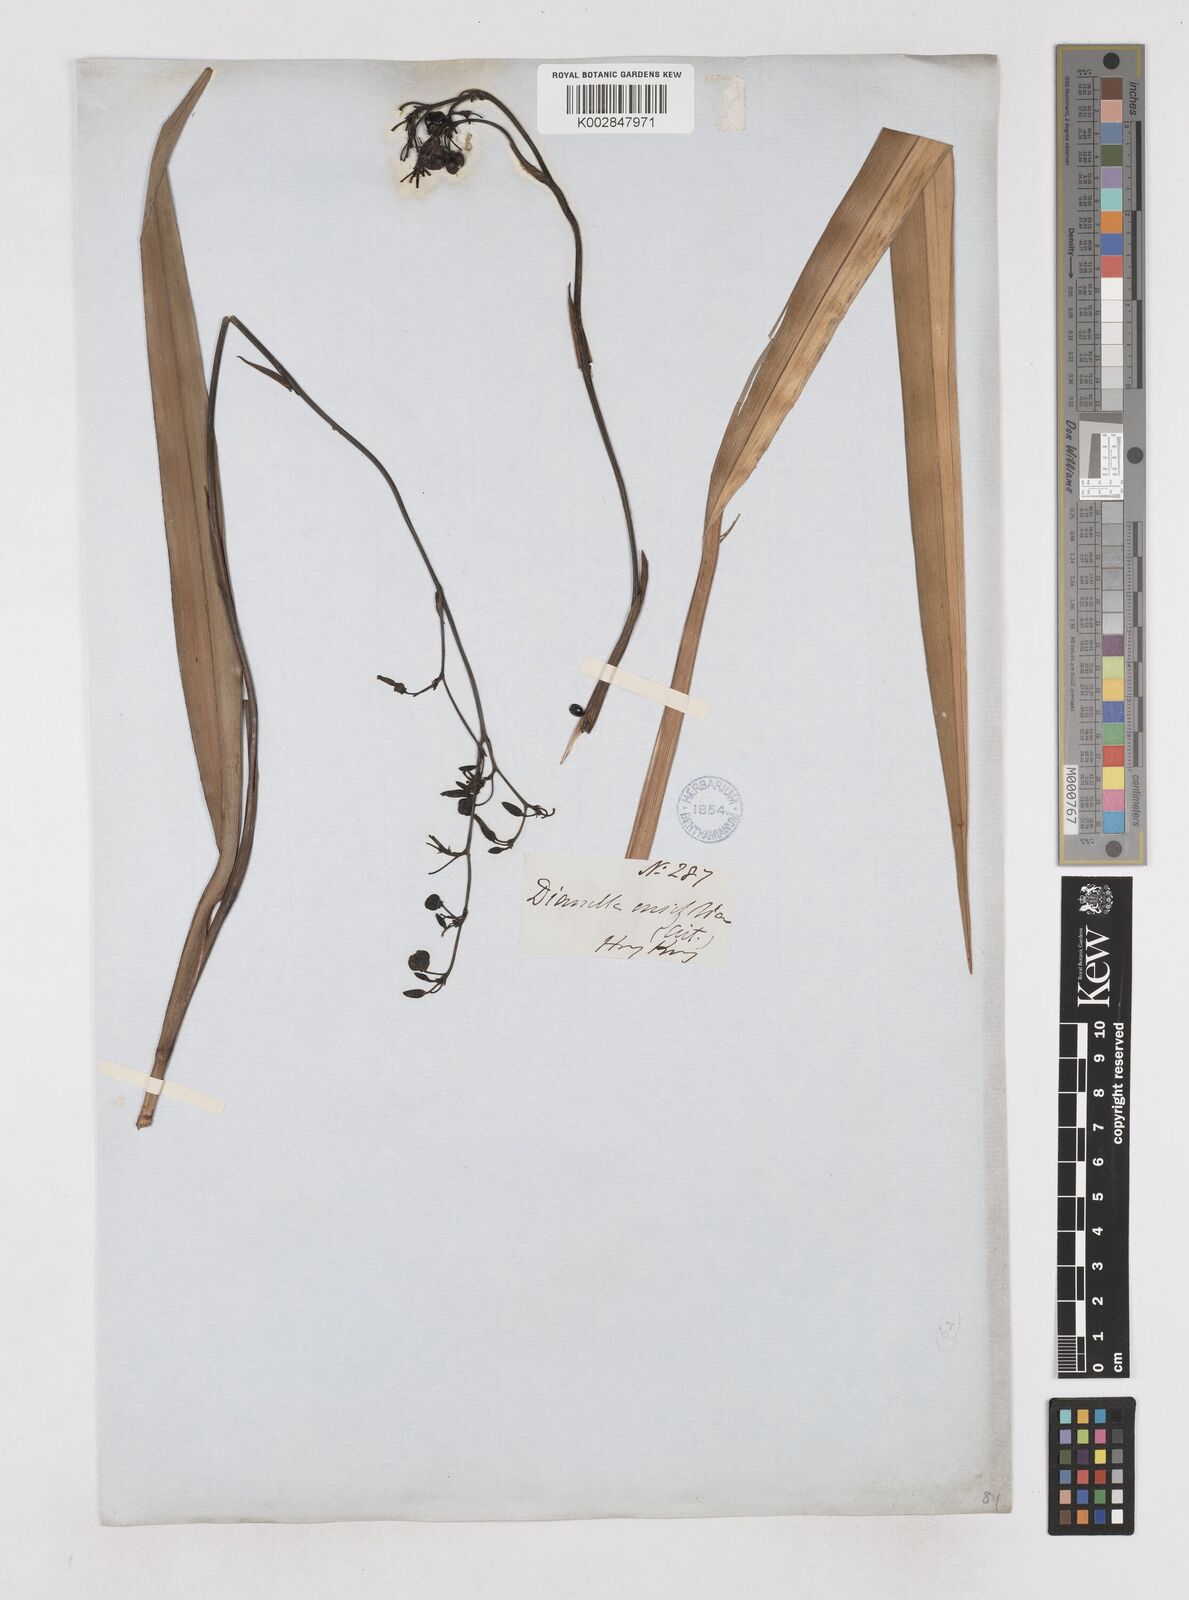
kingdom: Plantae
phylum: Tracheophyta
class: Liliopsida
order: Asparagales
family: Asphodelaceae
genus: Dianella
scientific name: Dianella ensifolia
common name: New zealand lilyplant
